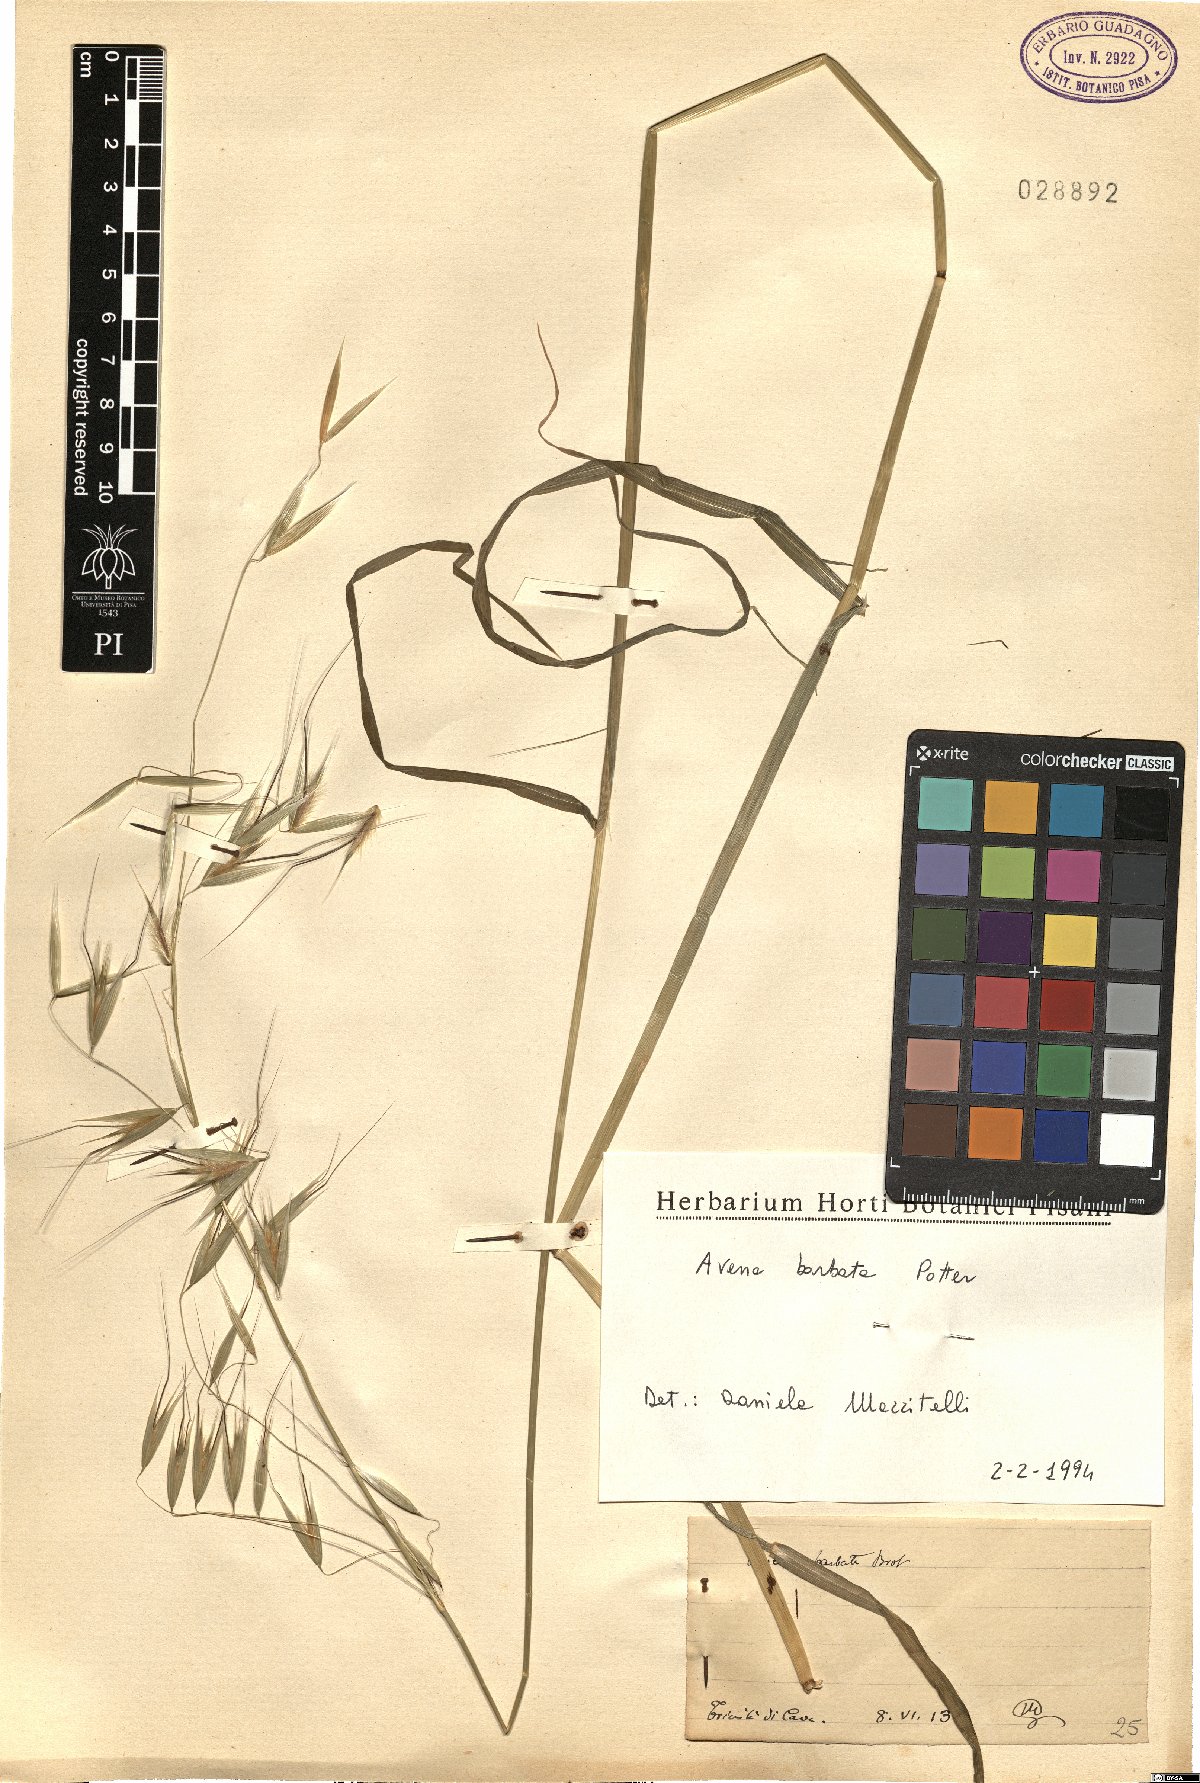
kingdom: Plantae
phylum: Tracheophyta
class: Liliopsida
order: Poales
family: Poaceae
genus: Avena
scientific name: Avena barbata
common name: Slender oat
